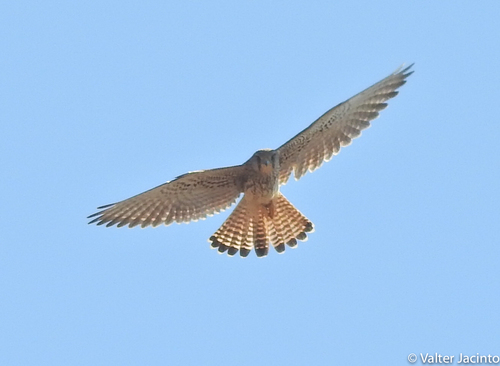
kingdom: Animalia
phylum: Chordata
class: Aves
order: Falconiformes
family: Falconidae
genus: Falco
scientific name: Falco tinnunculus
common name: Common kestrel
